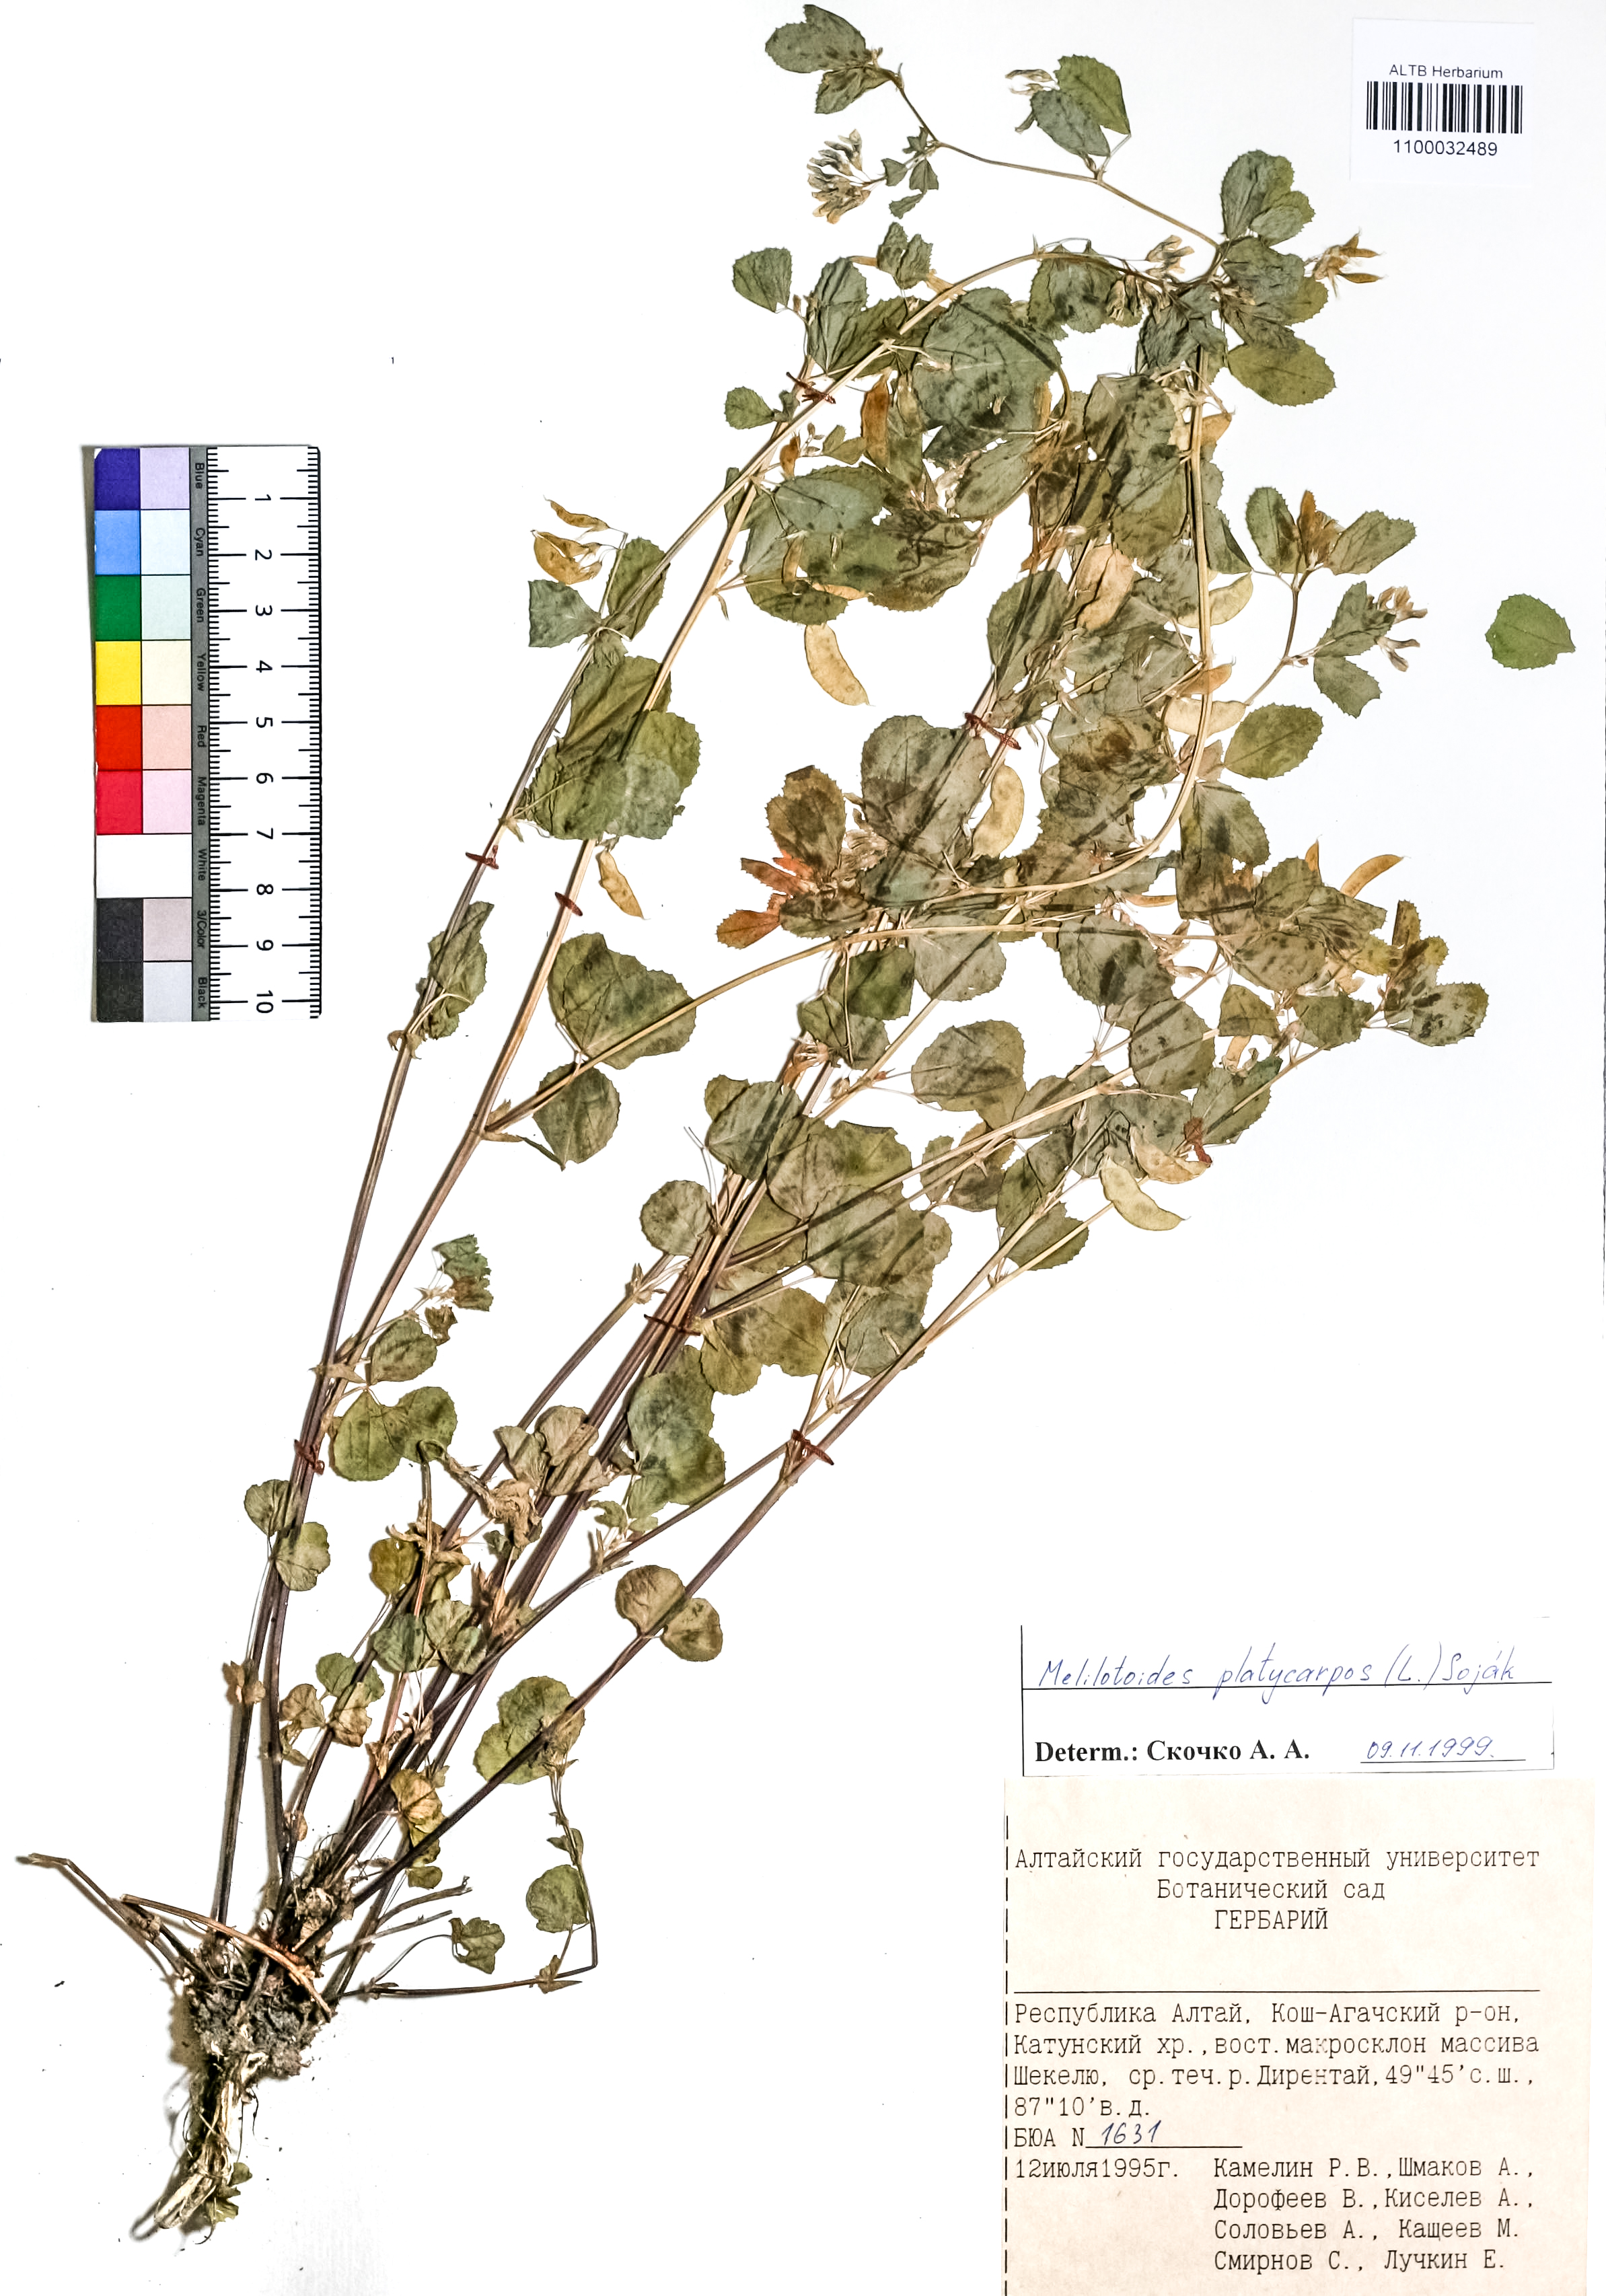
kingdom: Plantae
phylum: Tracheophyta
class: Magnoliopsida
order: Fabales
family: Fabaceae
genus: Medicago
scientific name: Medicago platycarpos
